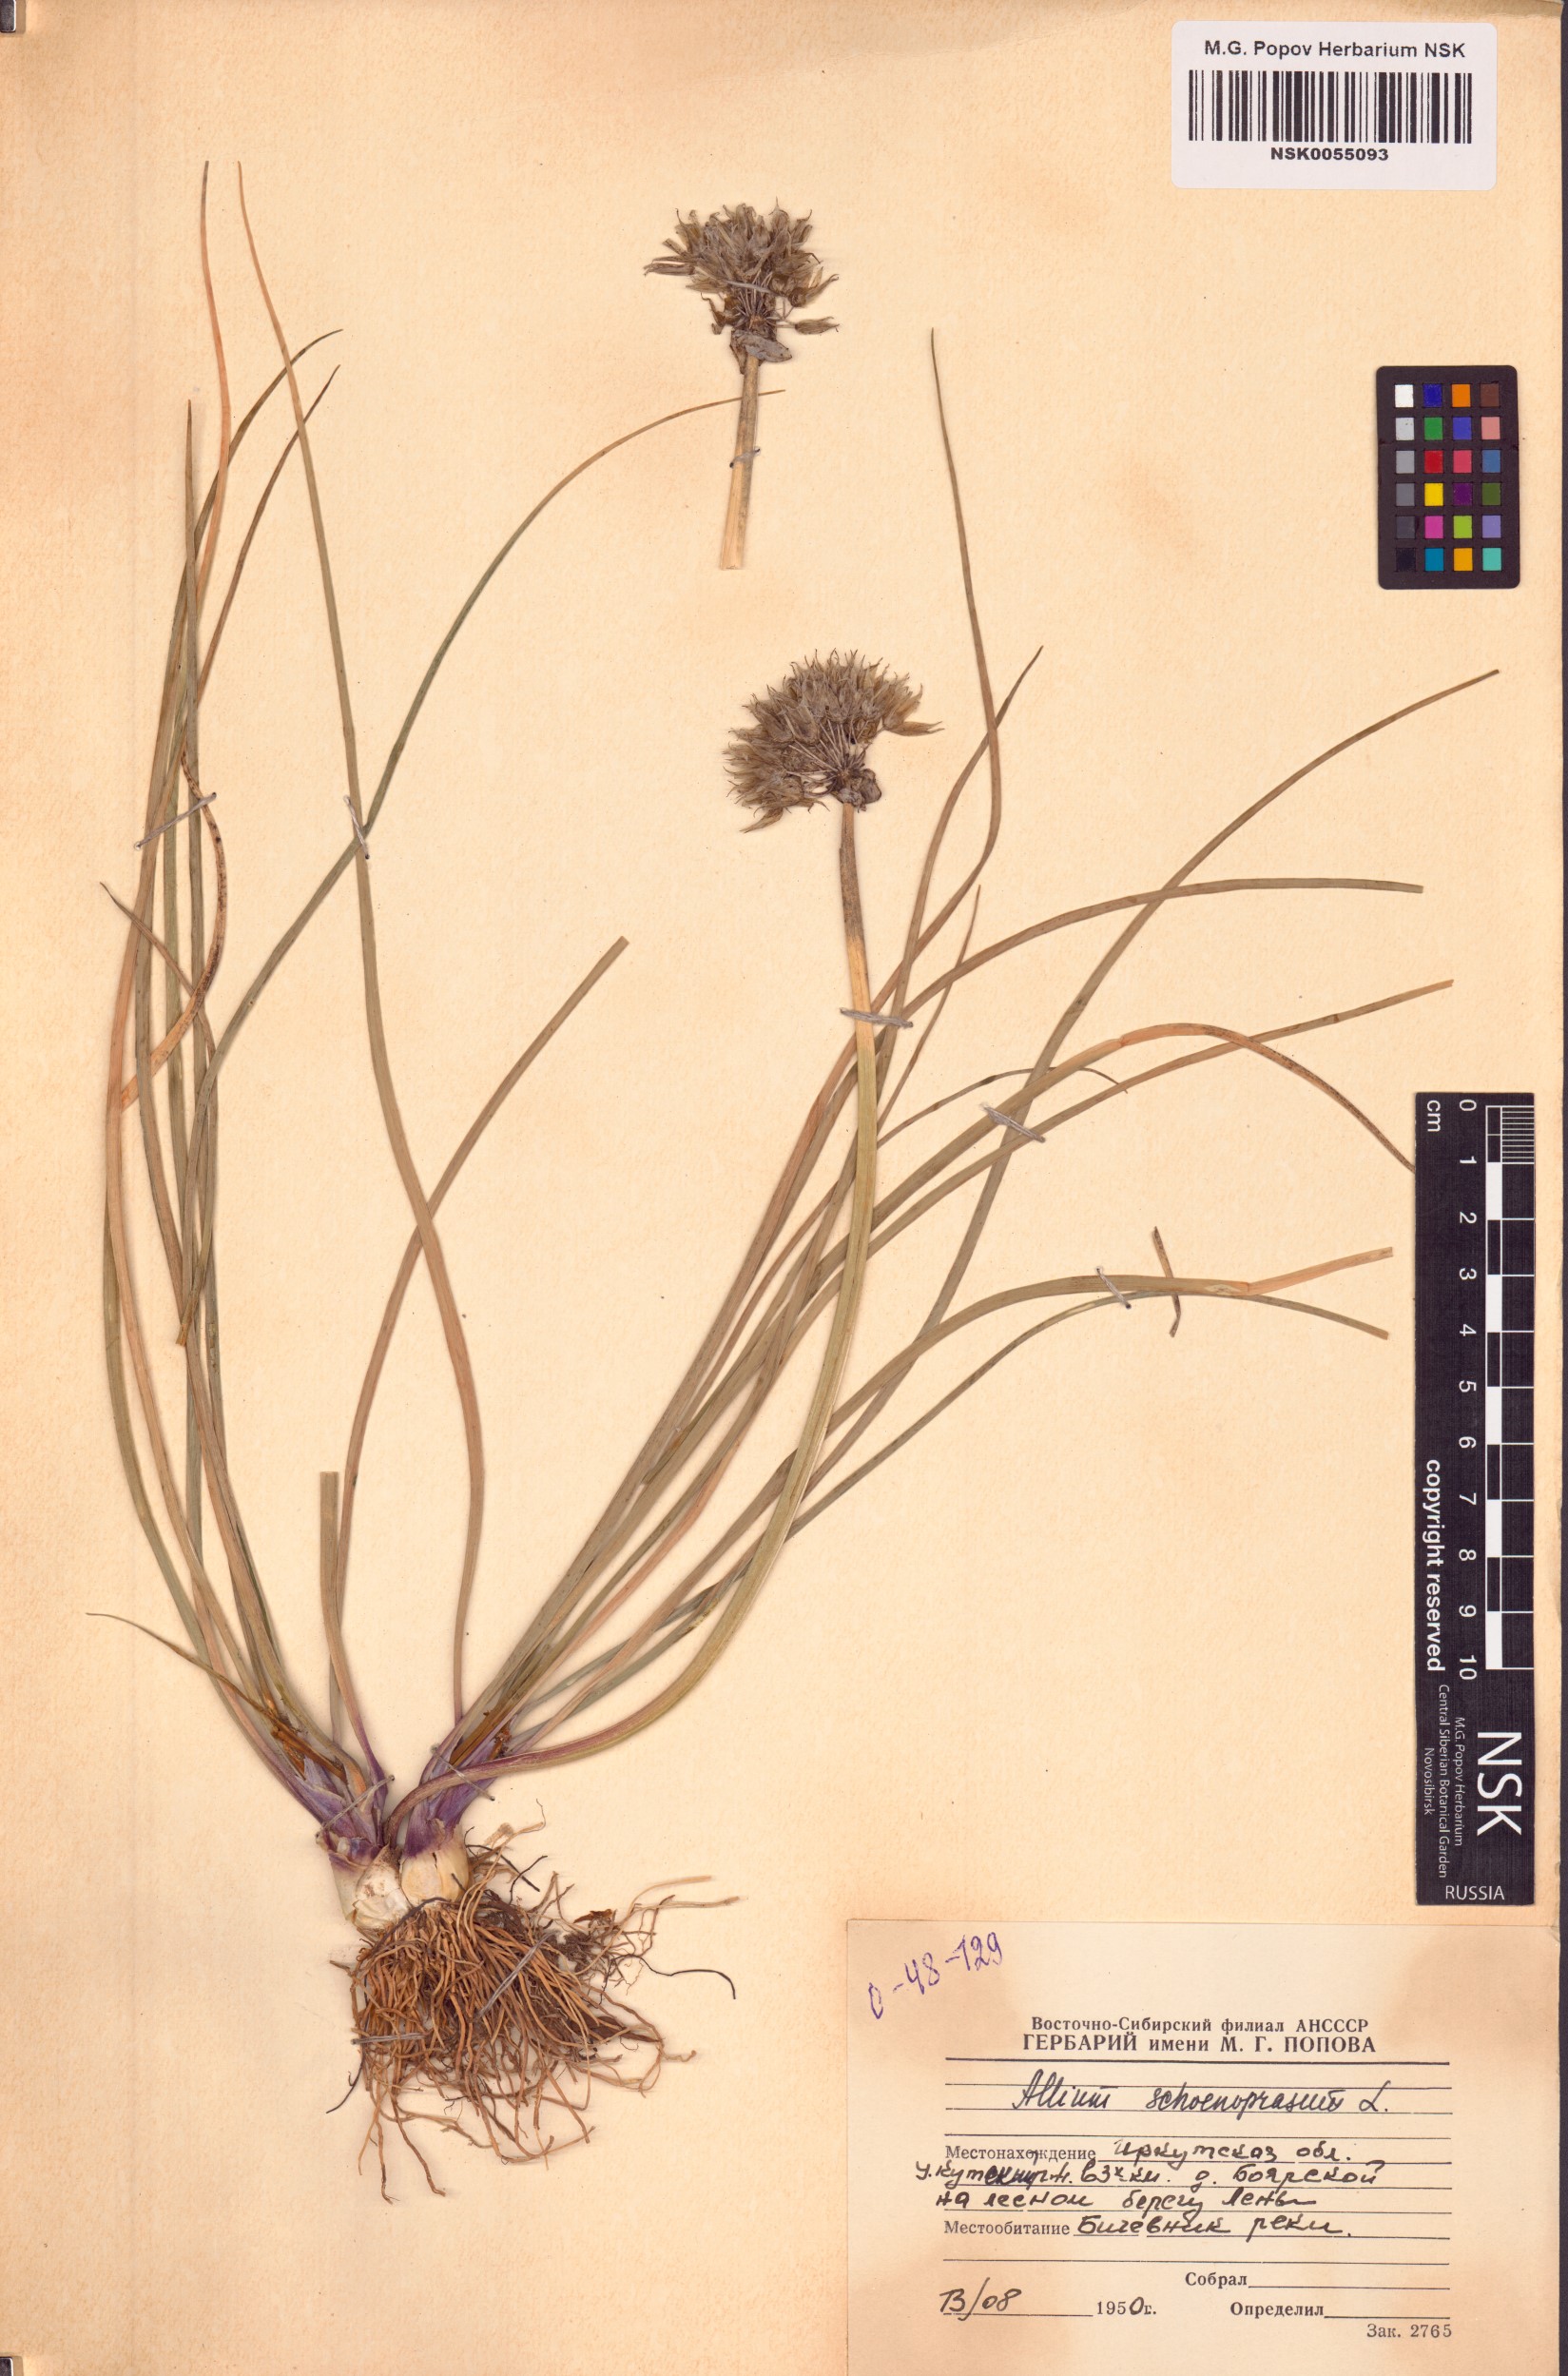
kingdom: Plantae
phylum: Tracheophyta
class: Liliopsida
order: Asparagales
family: Amaryllidaceae
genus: Allium
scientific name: Allium schoenoprasum
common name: Chives
